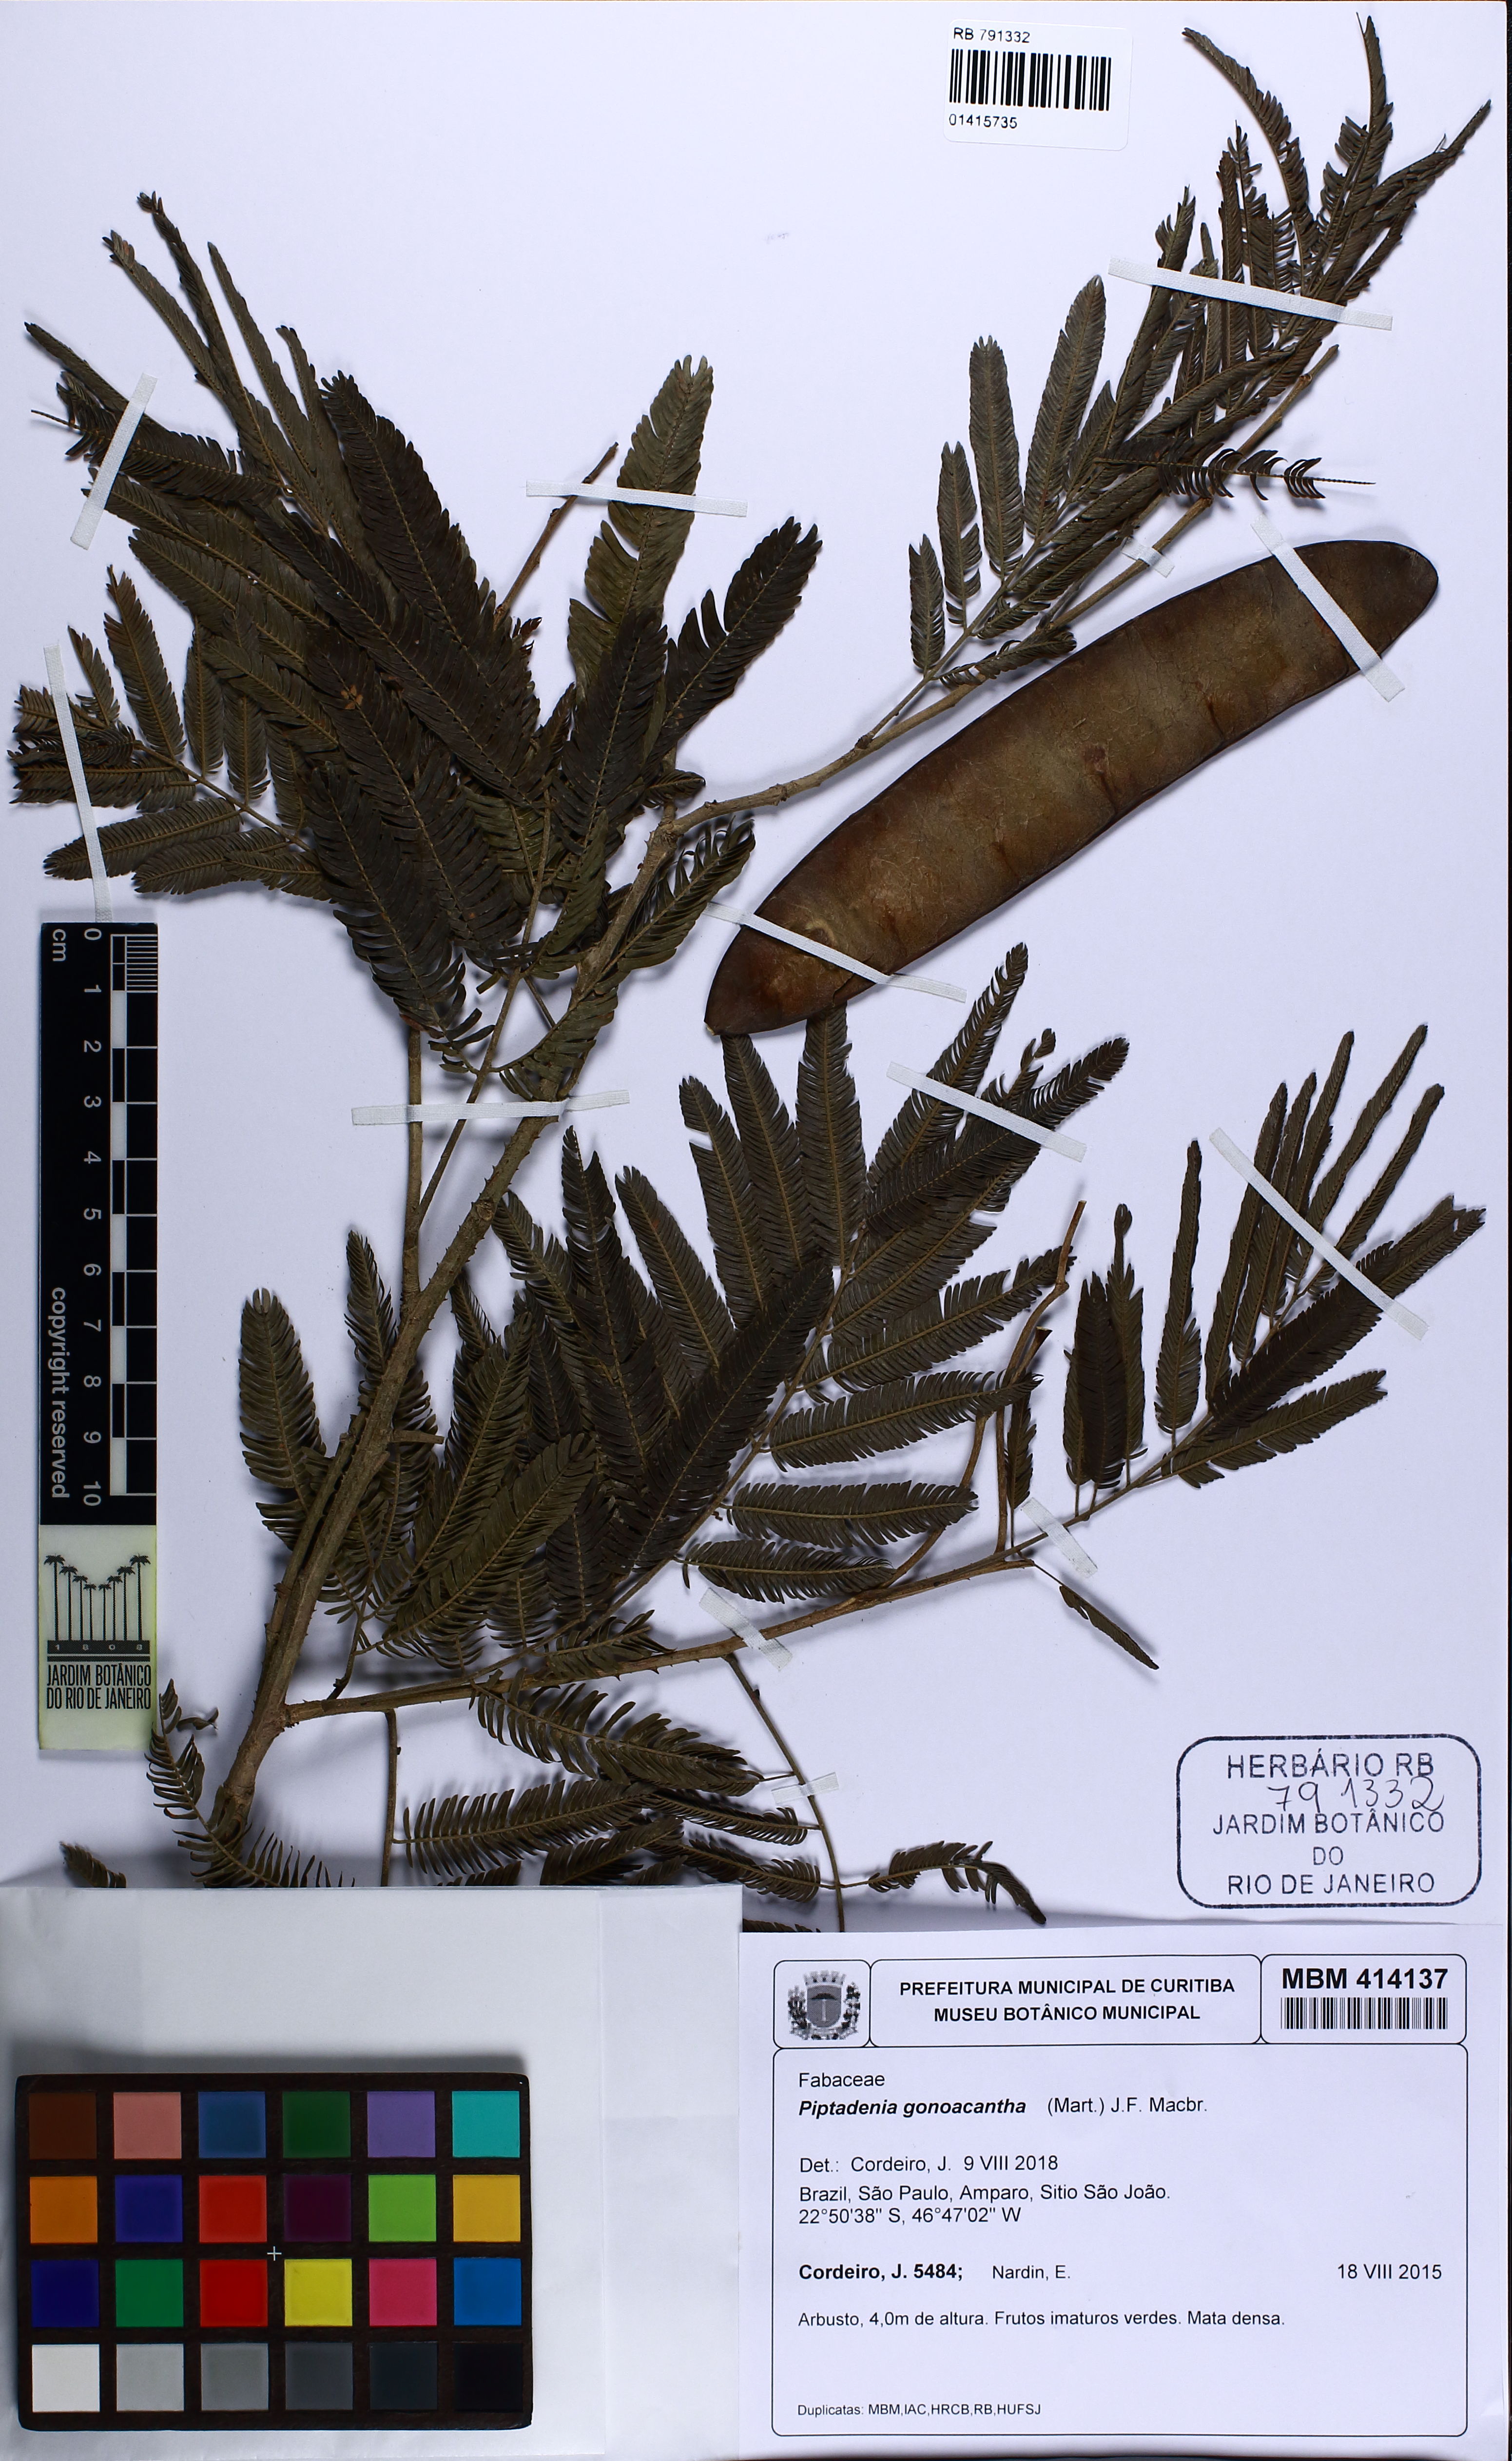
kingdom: Plantae
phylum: Tracheophyta
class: Magnoliopsida
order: Fabales
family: Fabaceae
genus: Piptadenia
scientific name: Piptadenia gonoacantha
